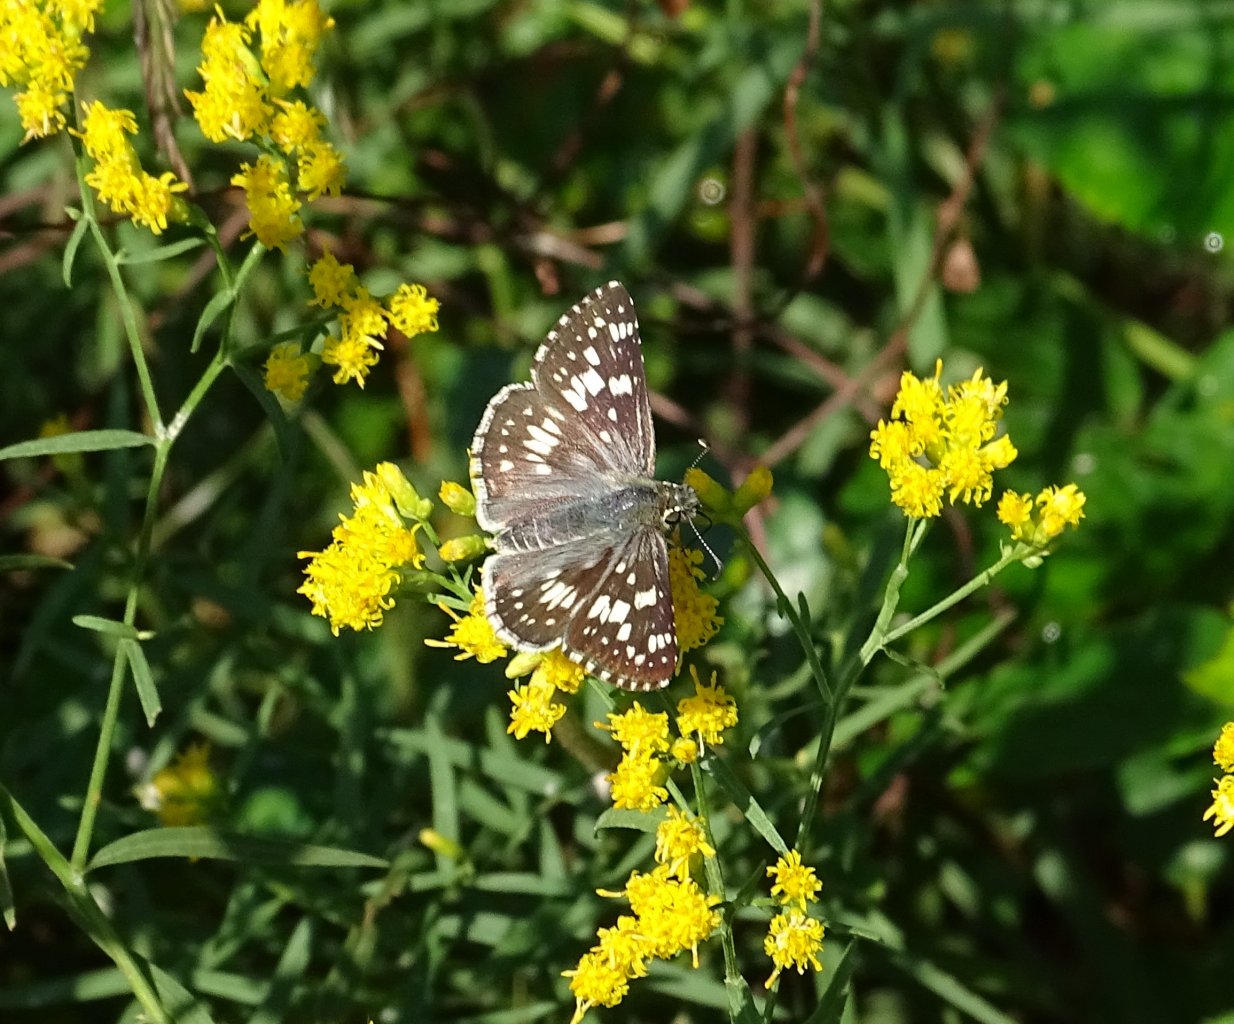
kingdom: Animalia
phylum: Arthropoda
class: Insecta
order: Lepidoptera
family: Hesperiidae
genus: Pyrgus
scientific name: Pyrgus communis
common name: Common Checkered-Skipper
